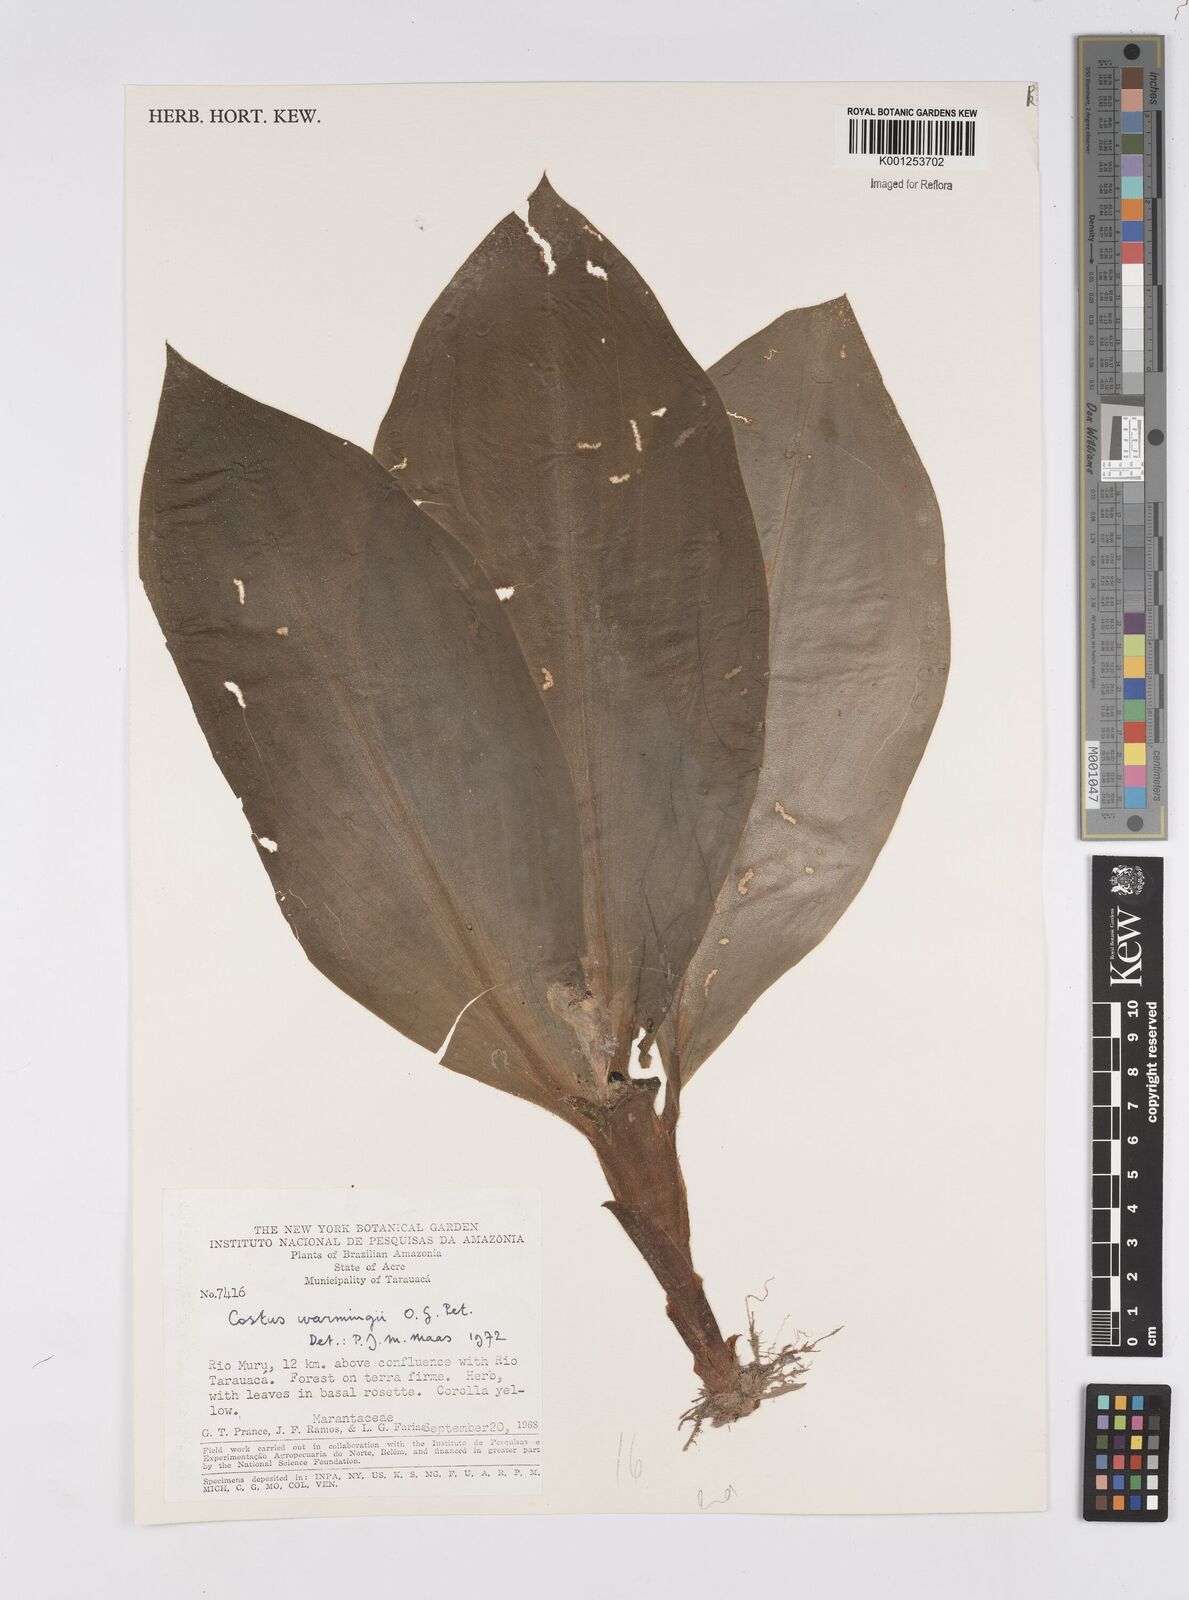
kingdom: Plantae
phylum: Tracheophyta
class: Liliopsida
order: Zingiberales
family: Costaceae
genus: Chamaecostus
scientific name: Chamaecostus subsessilis
